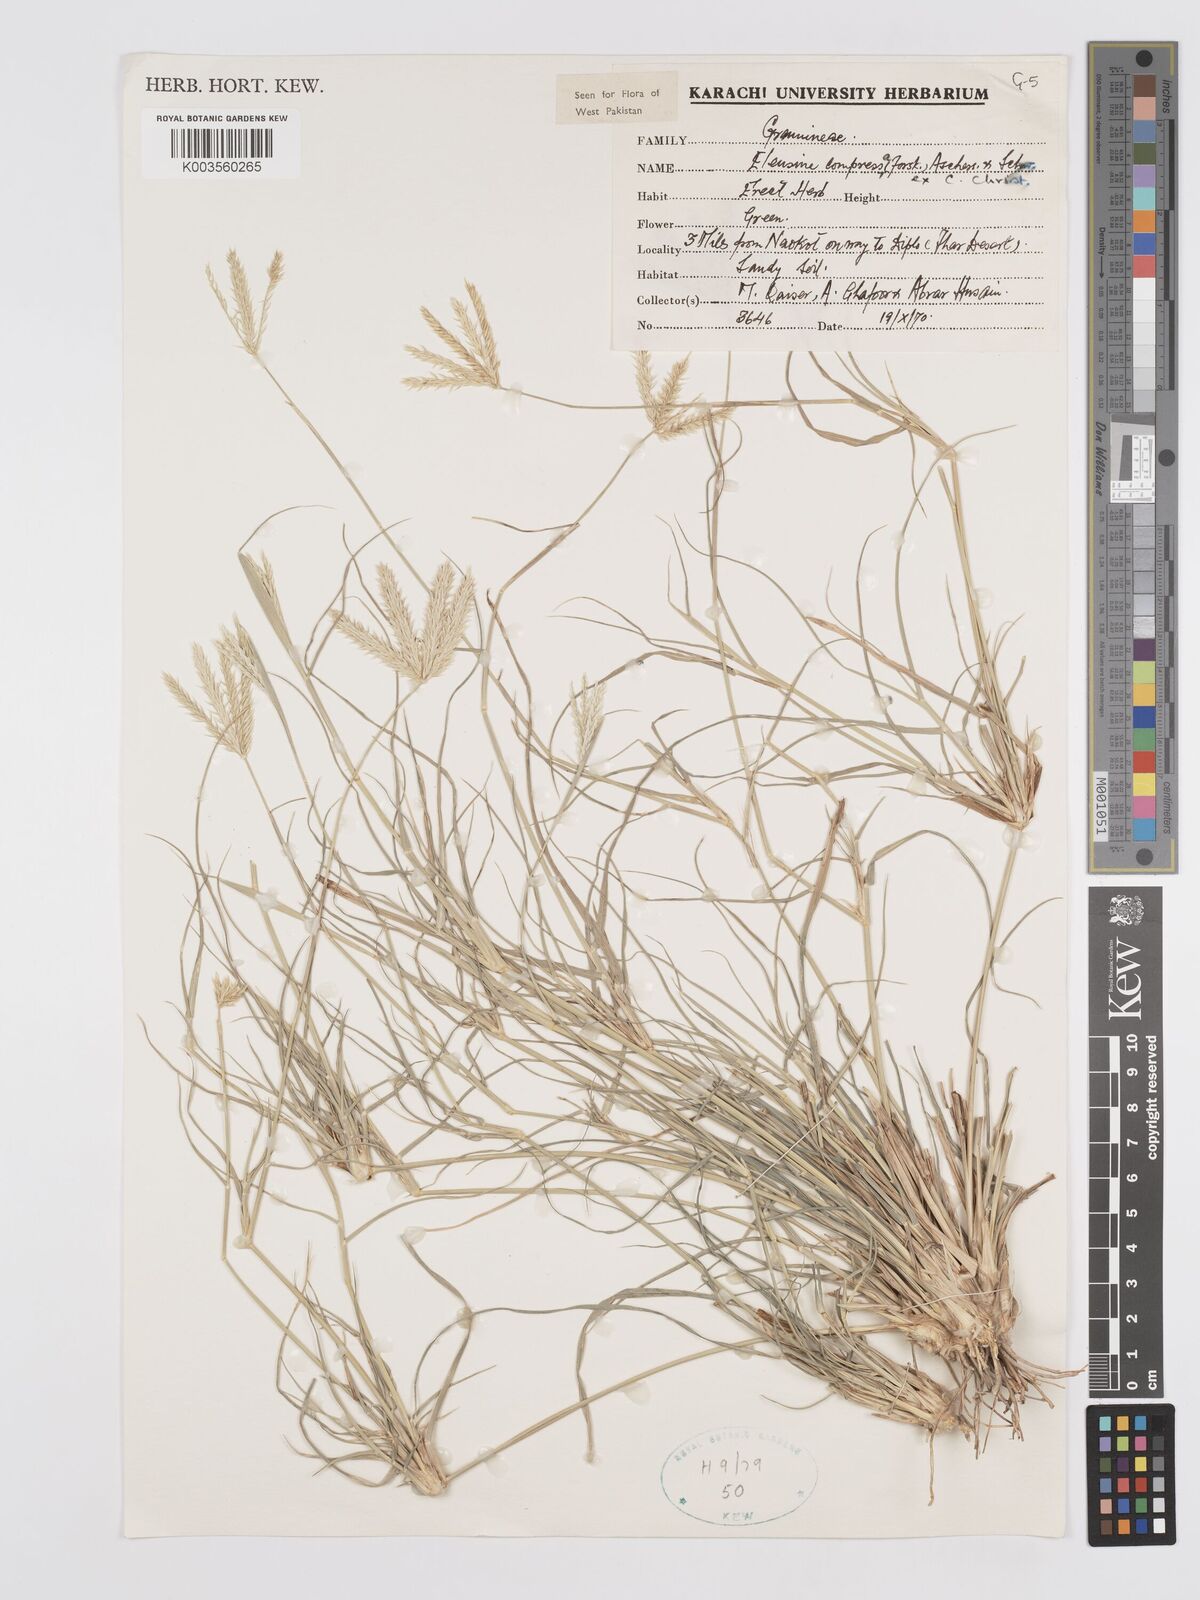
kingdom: Plantae
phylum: Tracheophyta
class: Liliopsida
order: Poales
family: Poaceae
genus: Chloris
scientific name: Chloris flagellifera
